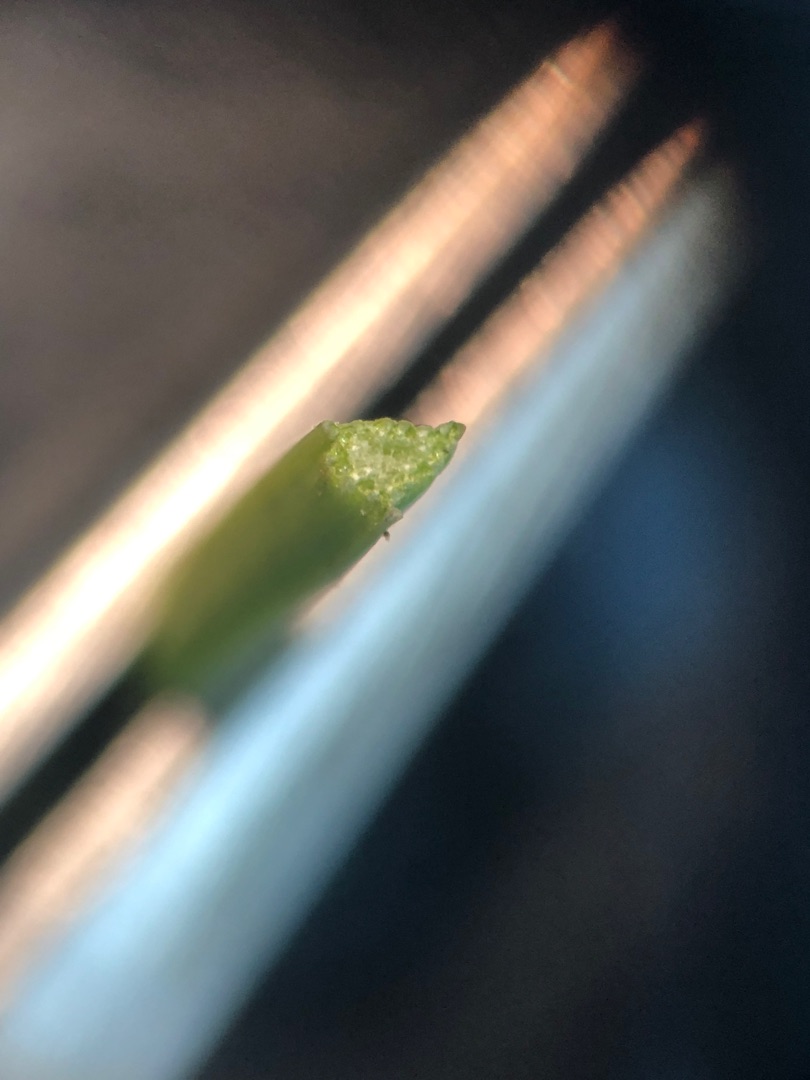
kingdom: Plantae
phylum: Tracheophyta
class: Liliopsida
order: Poales
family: Cyperaceae
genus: Carex
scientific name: Carex nigra
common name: Almindelig star
